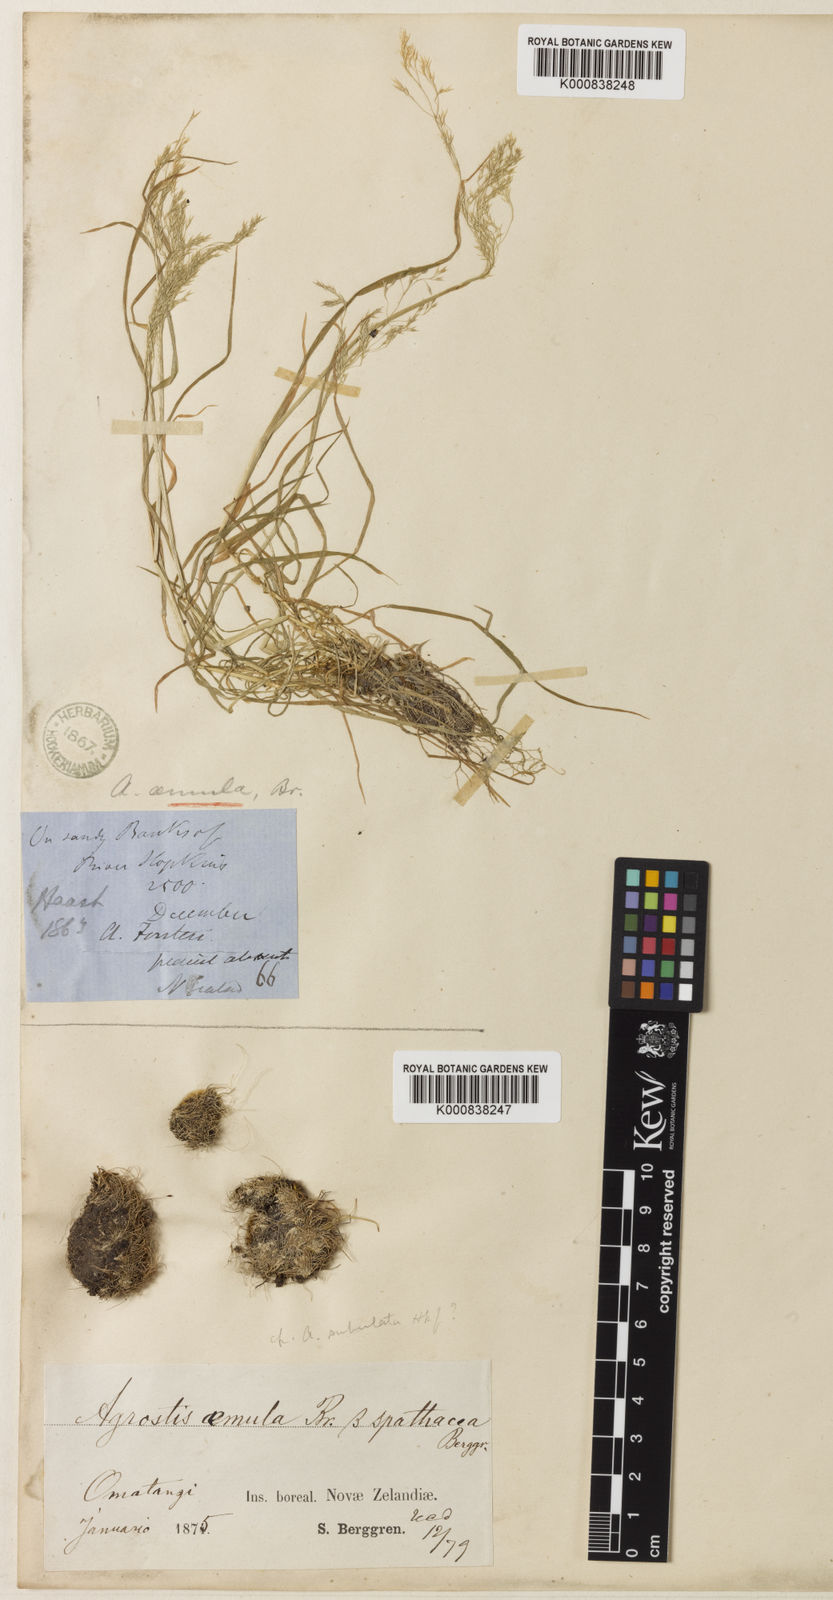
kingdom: Plantae
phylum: Tracheophyta
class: Liliopsida
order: Poales
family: Poaceae
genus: Agrostis
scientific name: Agrostis canina
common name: Velvet bent
